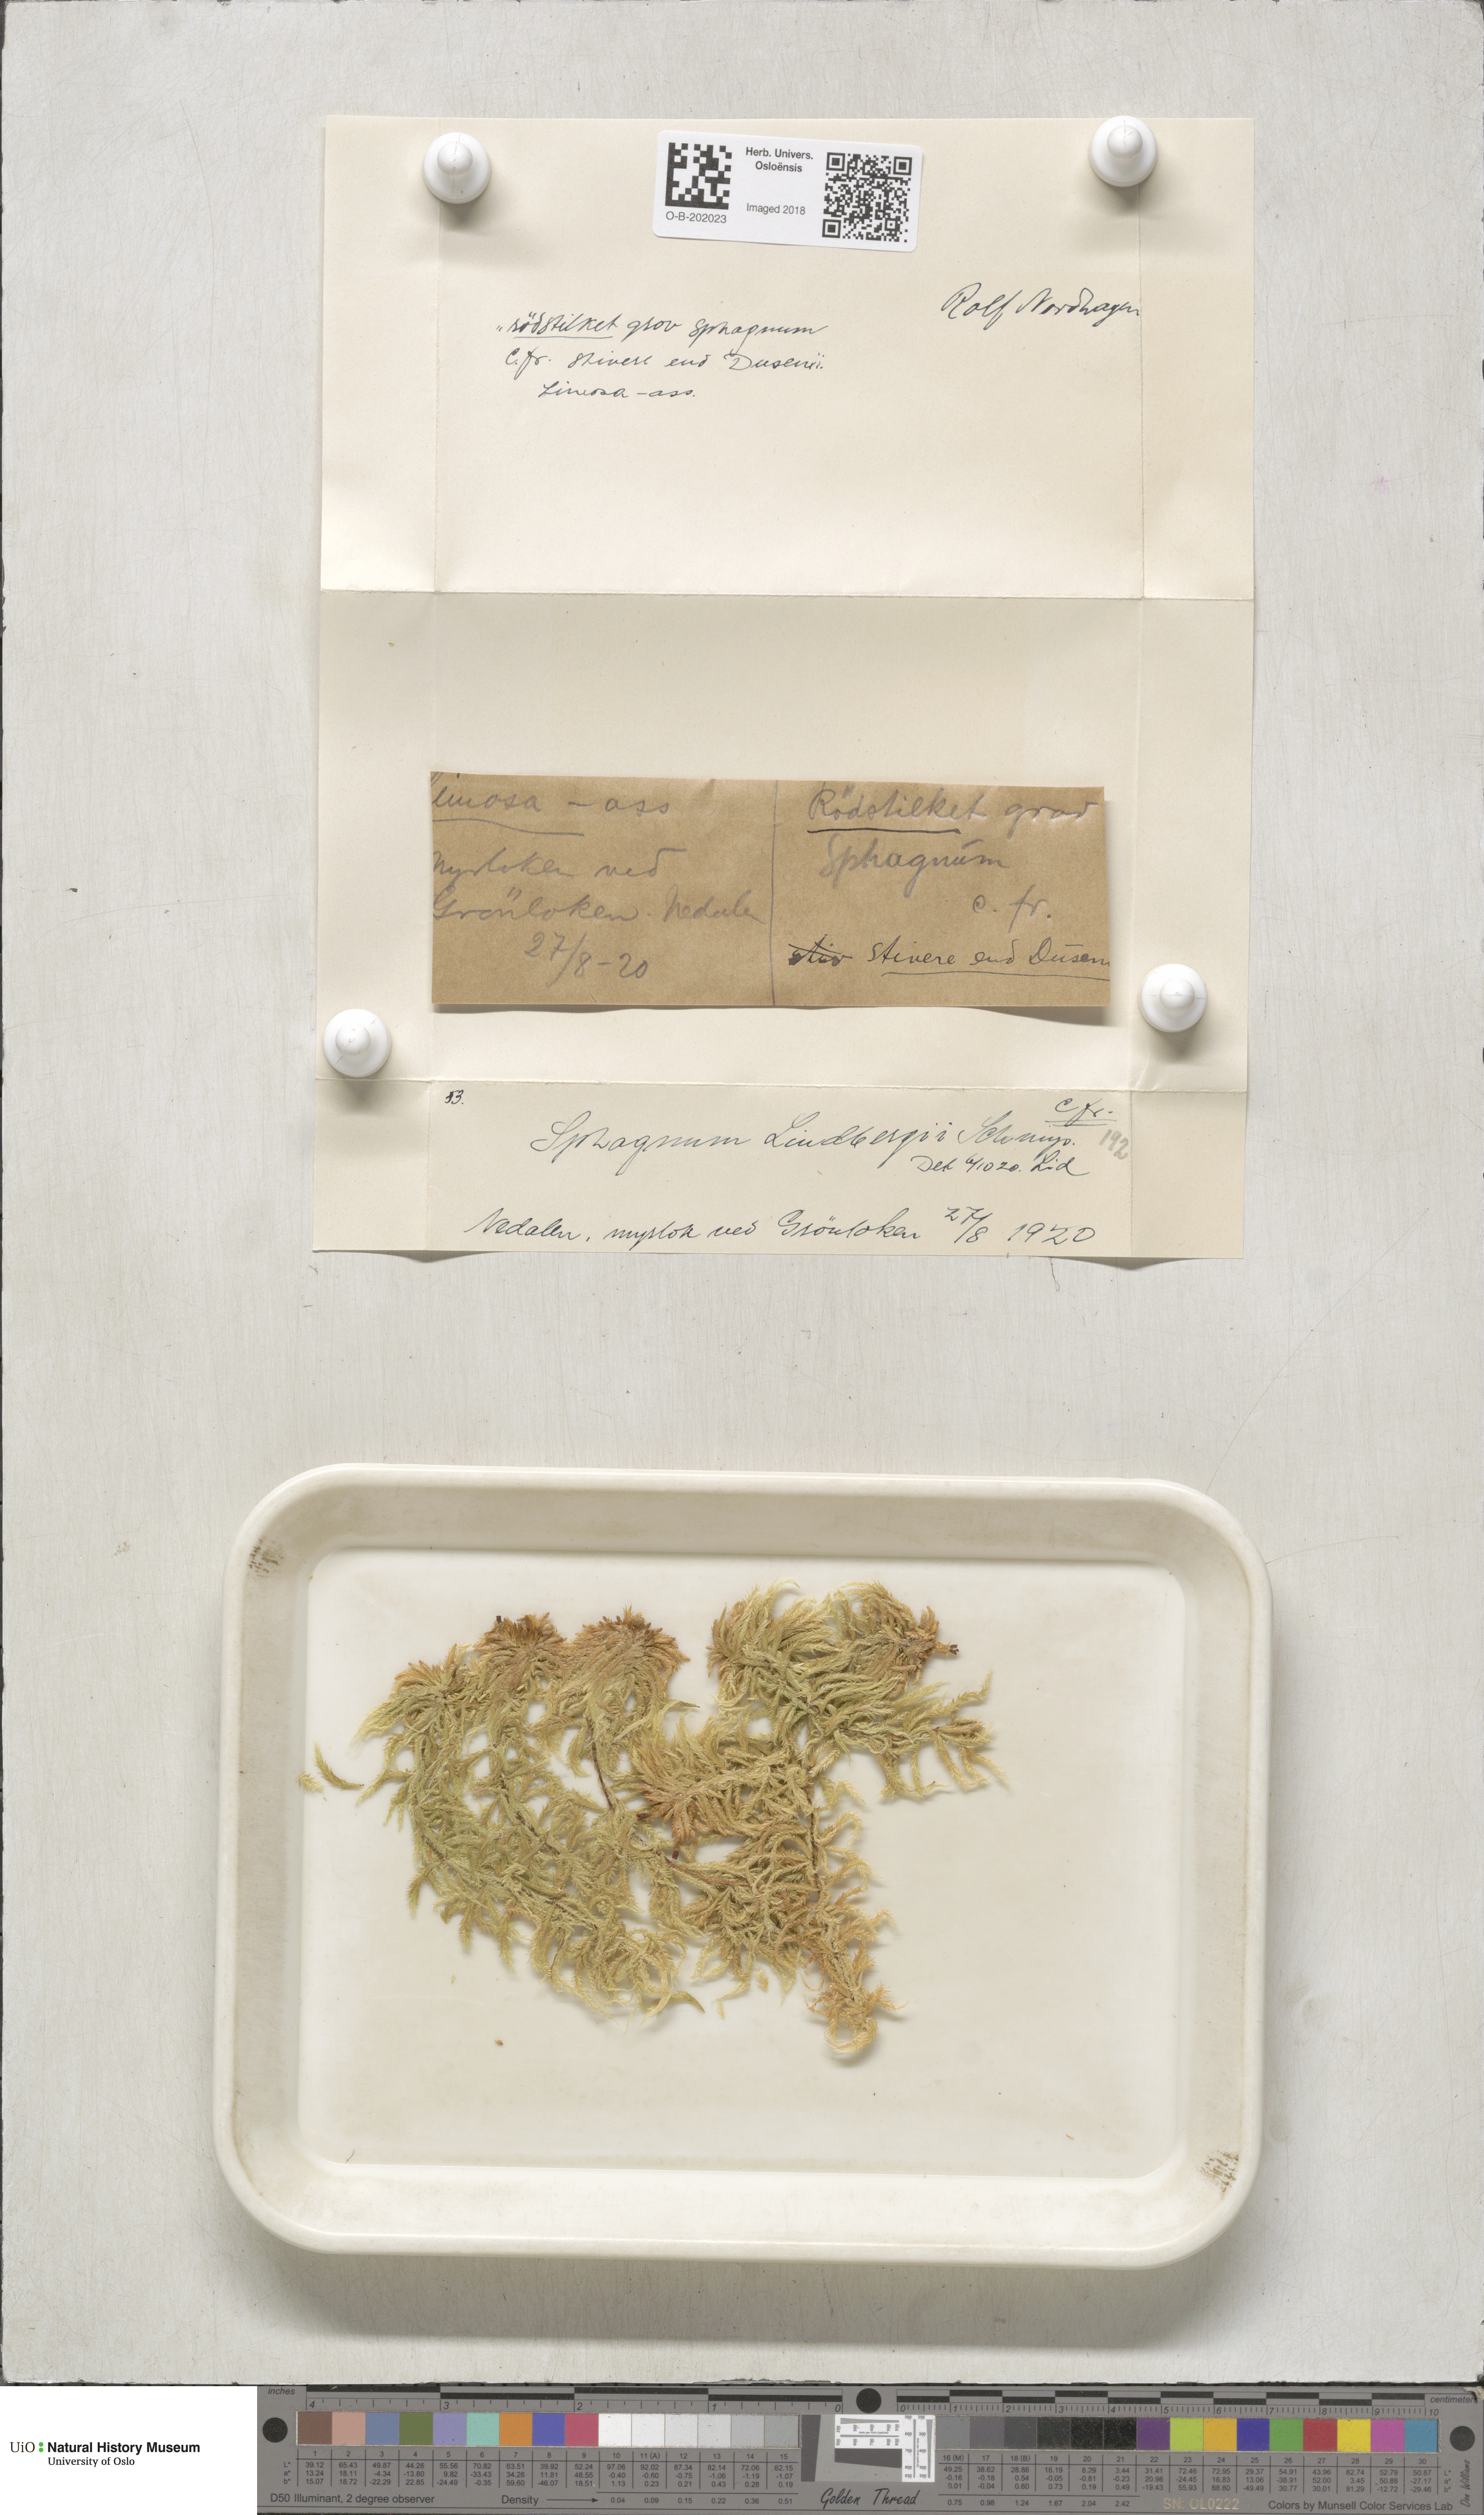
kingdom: Plantae
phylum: Bryophyta
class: Sphagnopsida
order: Sphagnales
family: Sphagnaceae
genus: Sphagnum
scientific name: Sphagnum lindbergii
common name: Lindberg's peat moss
